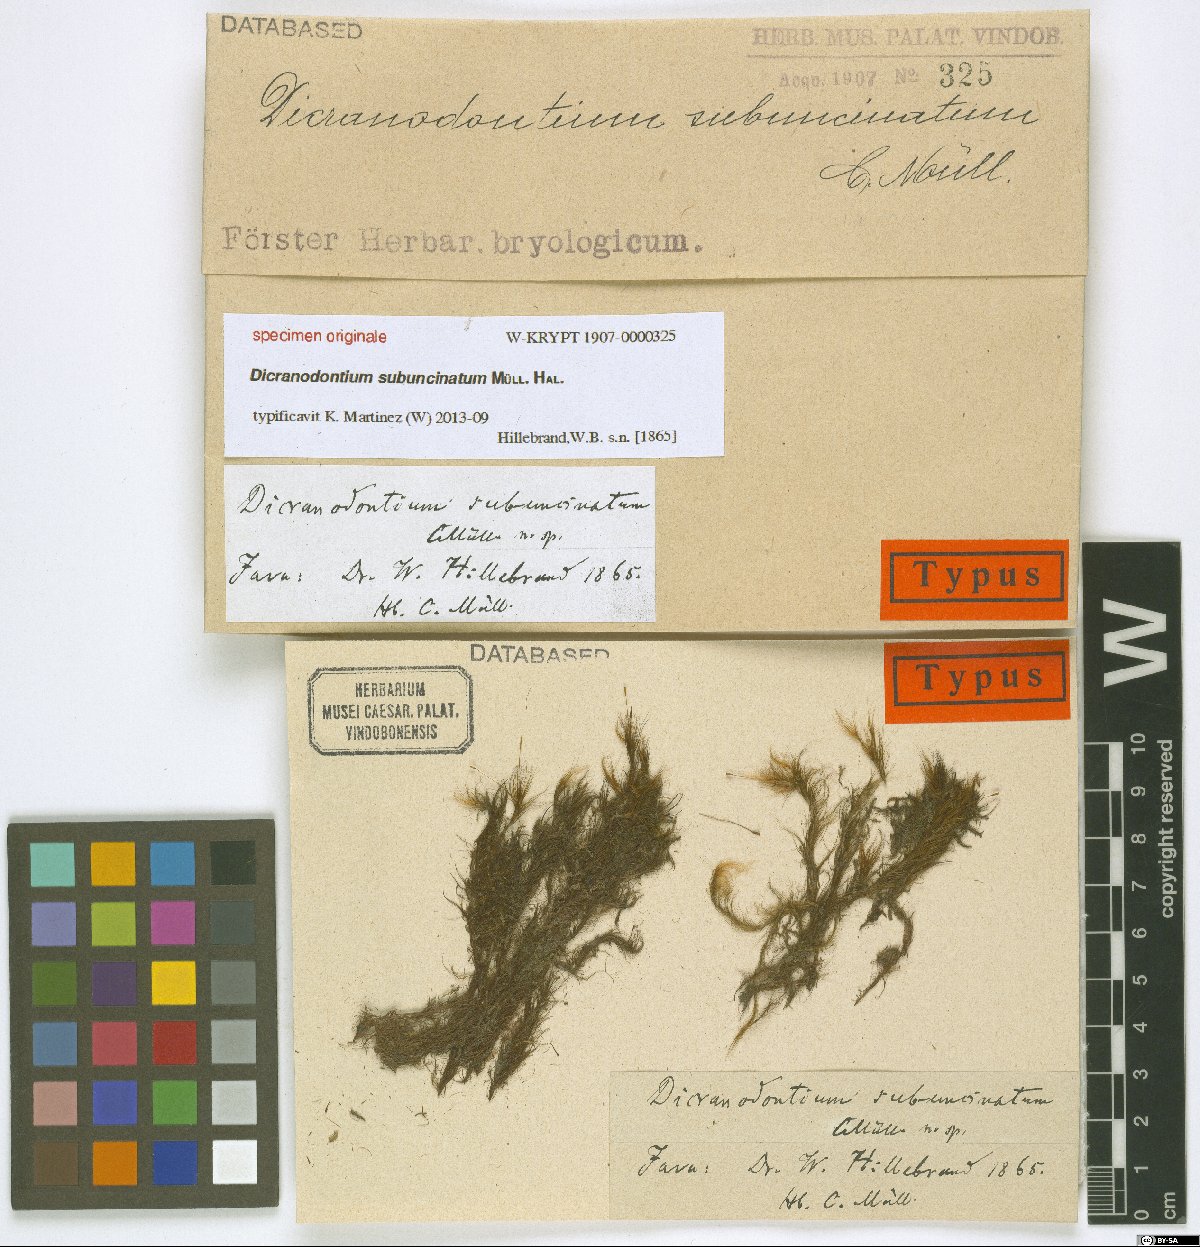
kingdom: Plantae
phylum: Bryophyta
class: Bryopsida
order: Dicranales
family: Dicranaceae
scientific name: Dicranaceae
